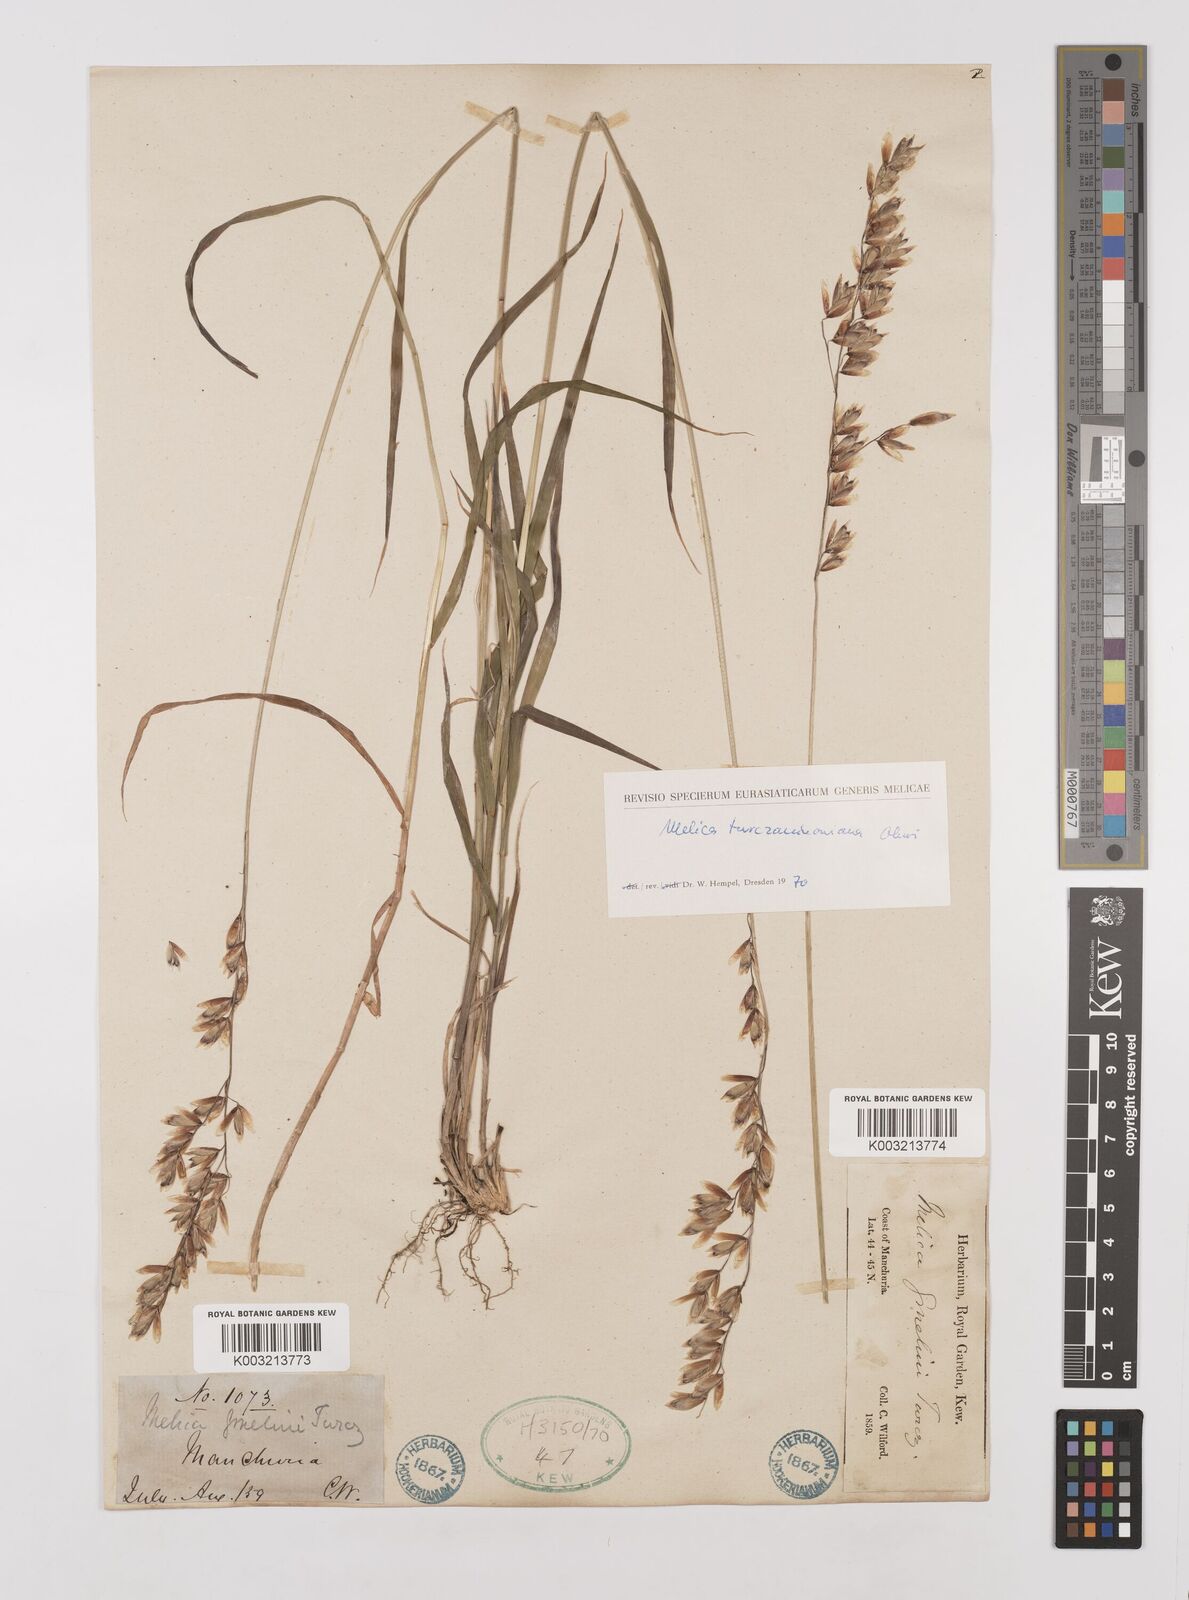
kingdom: Plantae
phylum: Tracheophyta
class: Liliopsida
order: Poales
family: Poaceae
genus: Melica
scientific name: Melica turczaninowiana
